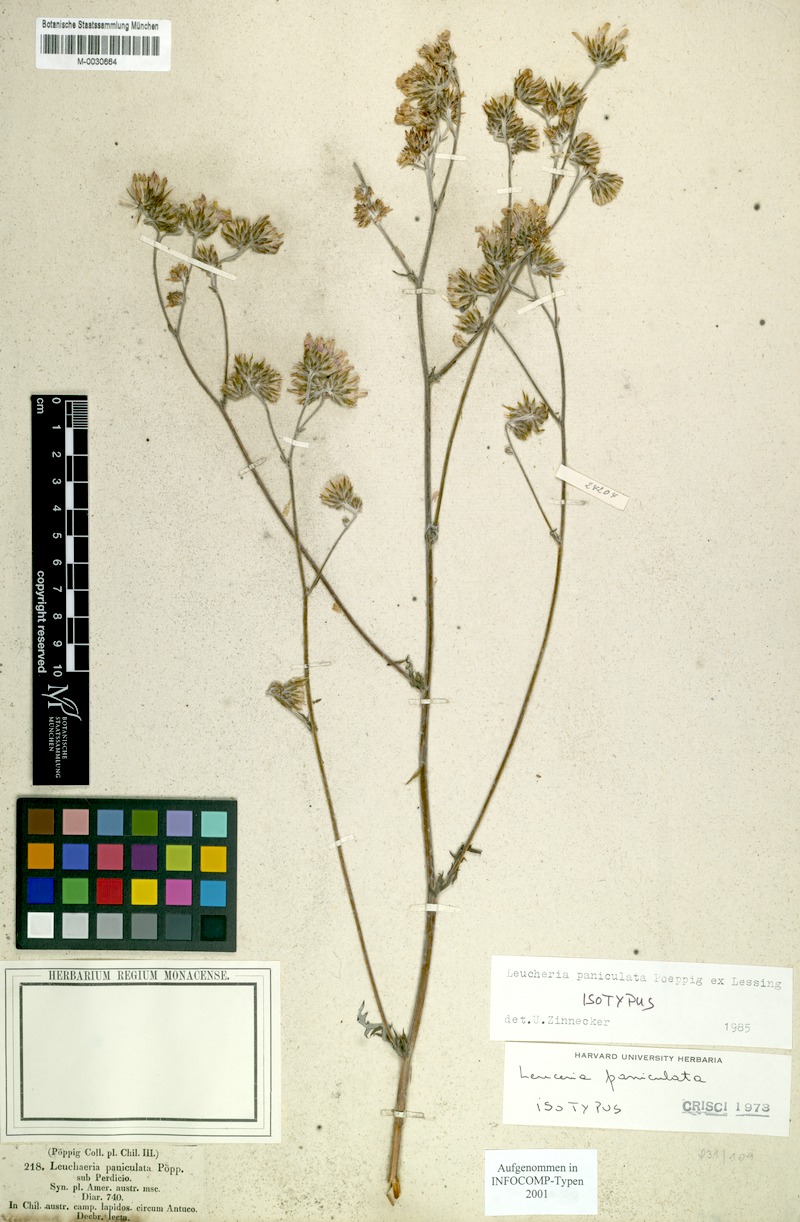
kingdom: Plantae
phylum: Tracheophyta
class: Magnoliopsida
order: Asterales
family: Asteraceae
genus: Leucheria
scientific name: Leucheria paniculata
